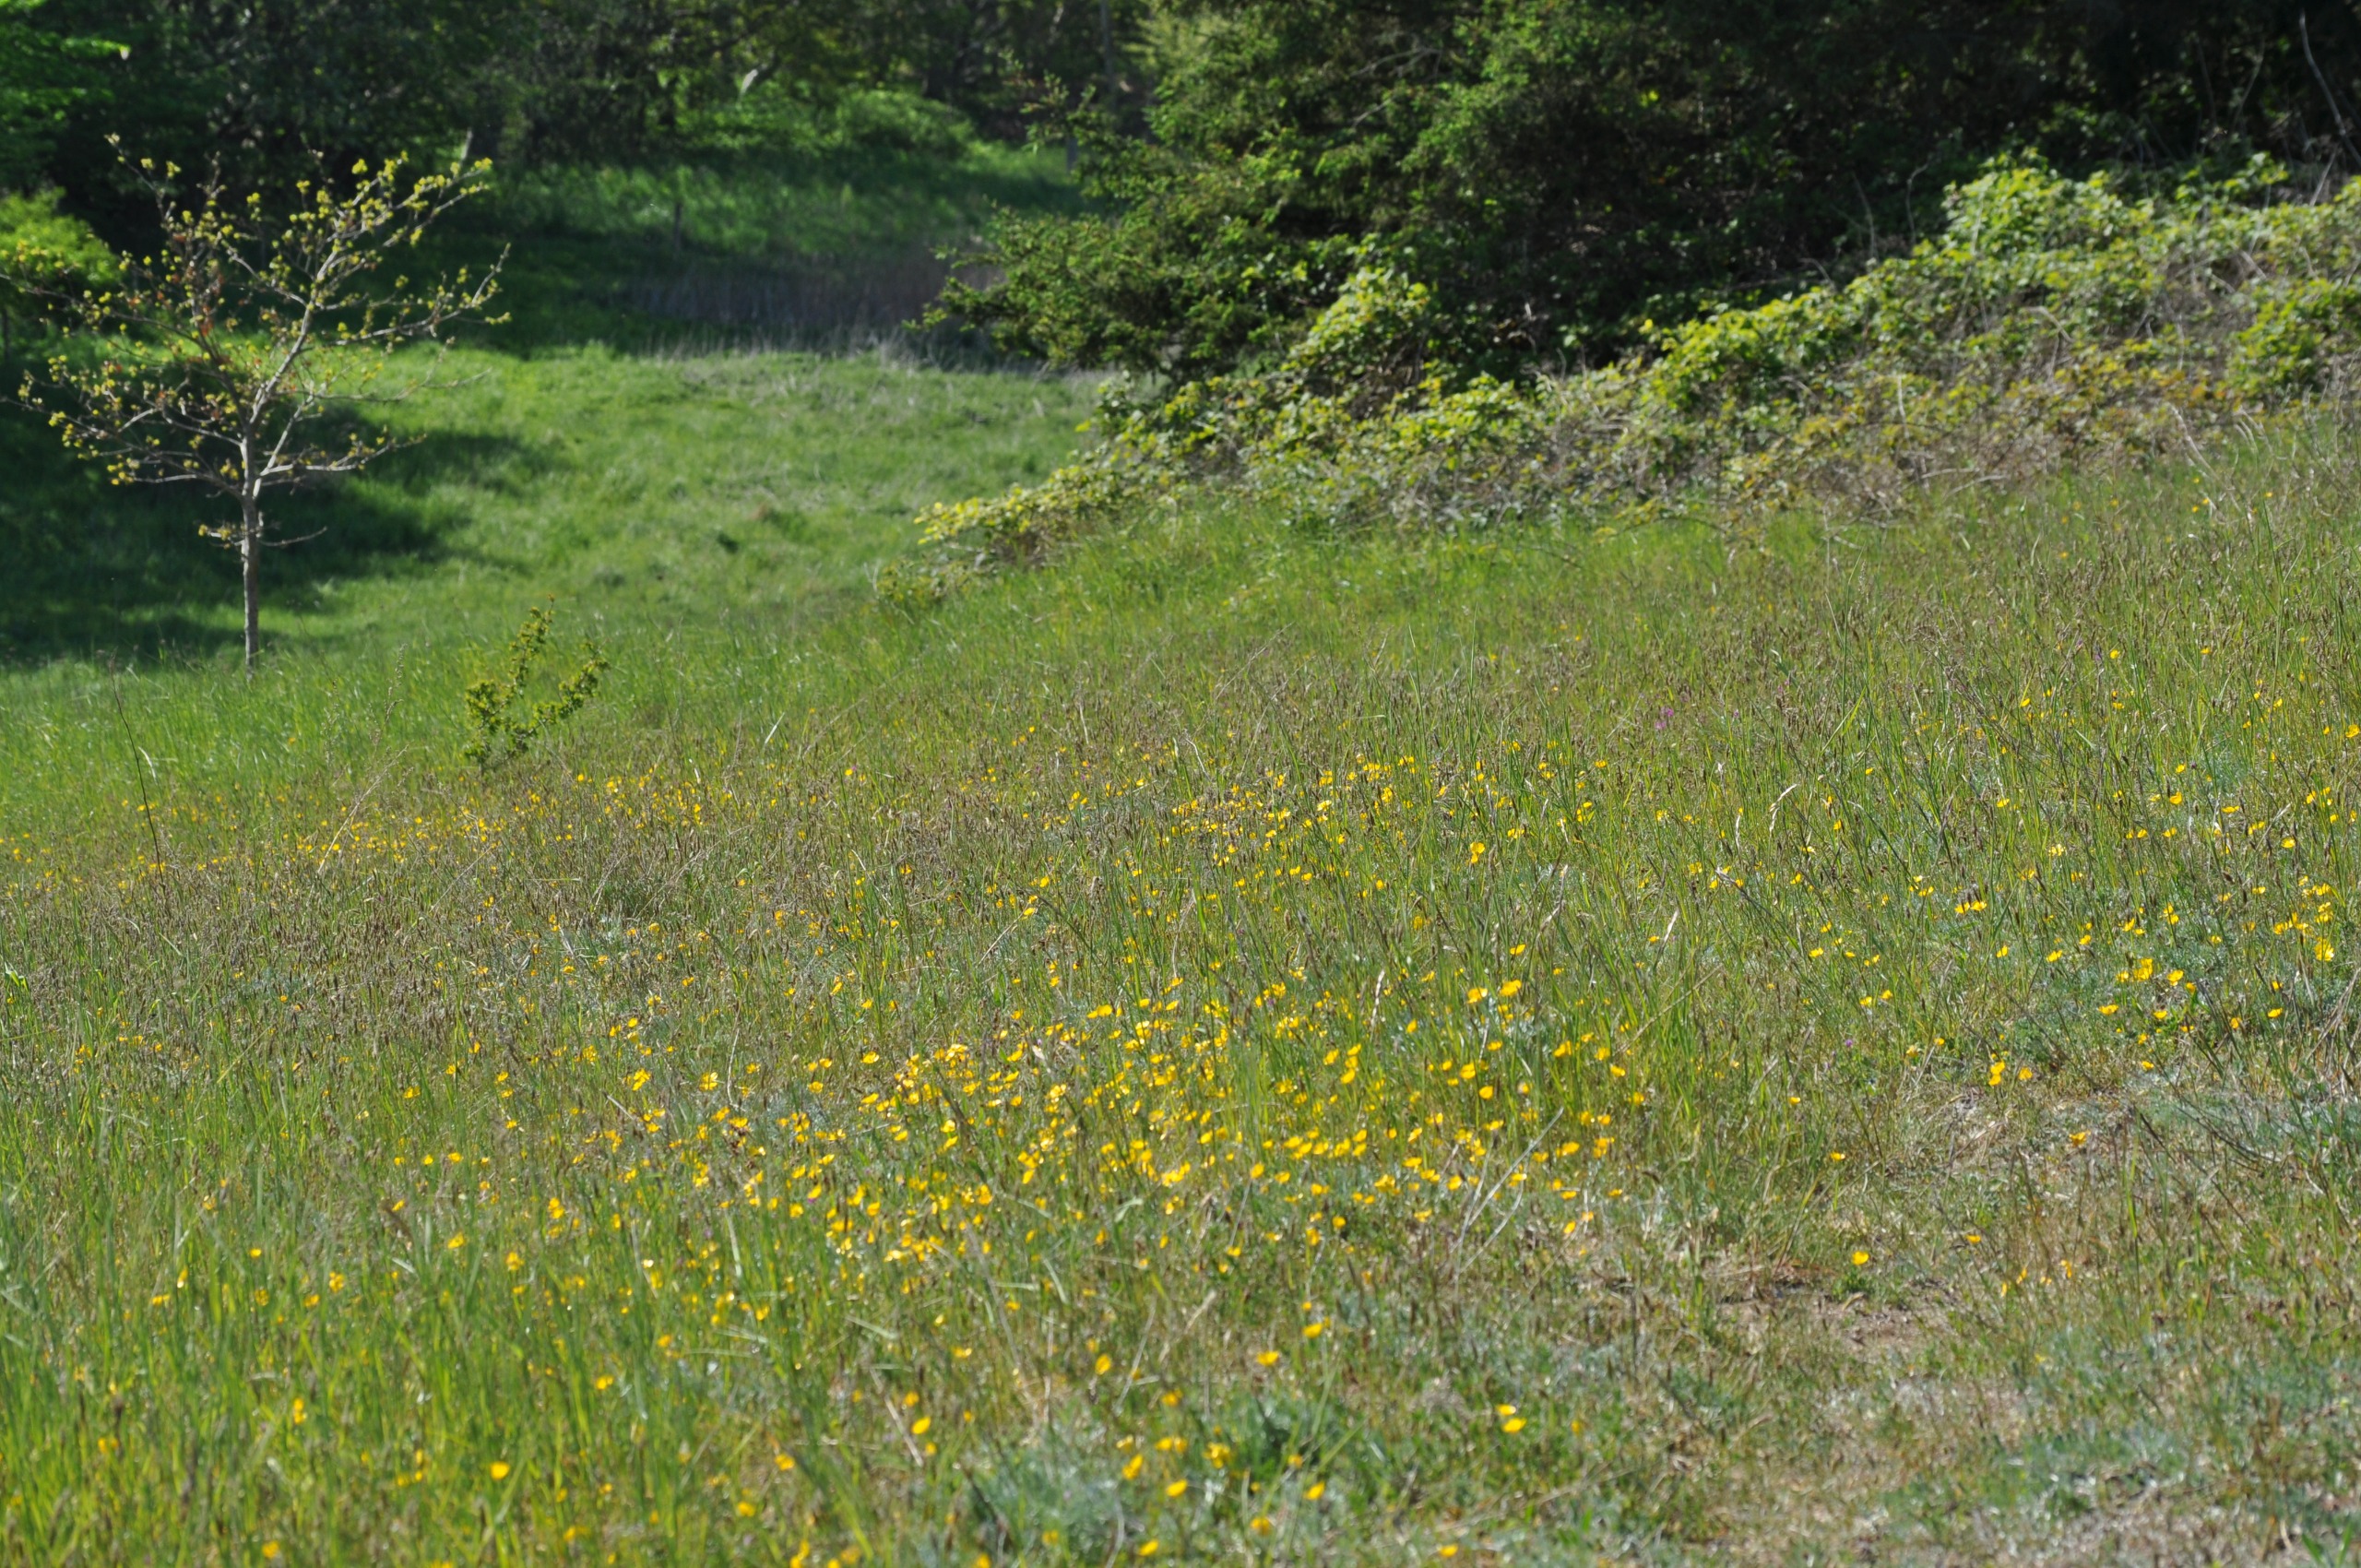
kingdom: Plantae
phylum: Tracheophyta
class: Magnoliopsida
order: Ranunculales
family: Ranunculaceae
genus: Ranunculus
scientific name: Ranunculus bulbosus
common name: Knold-ranunkel
